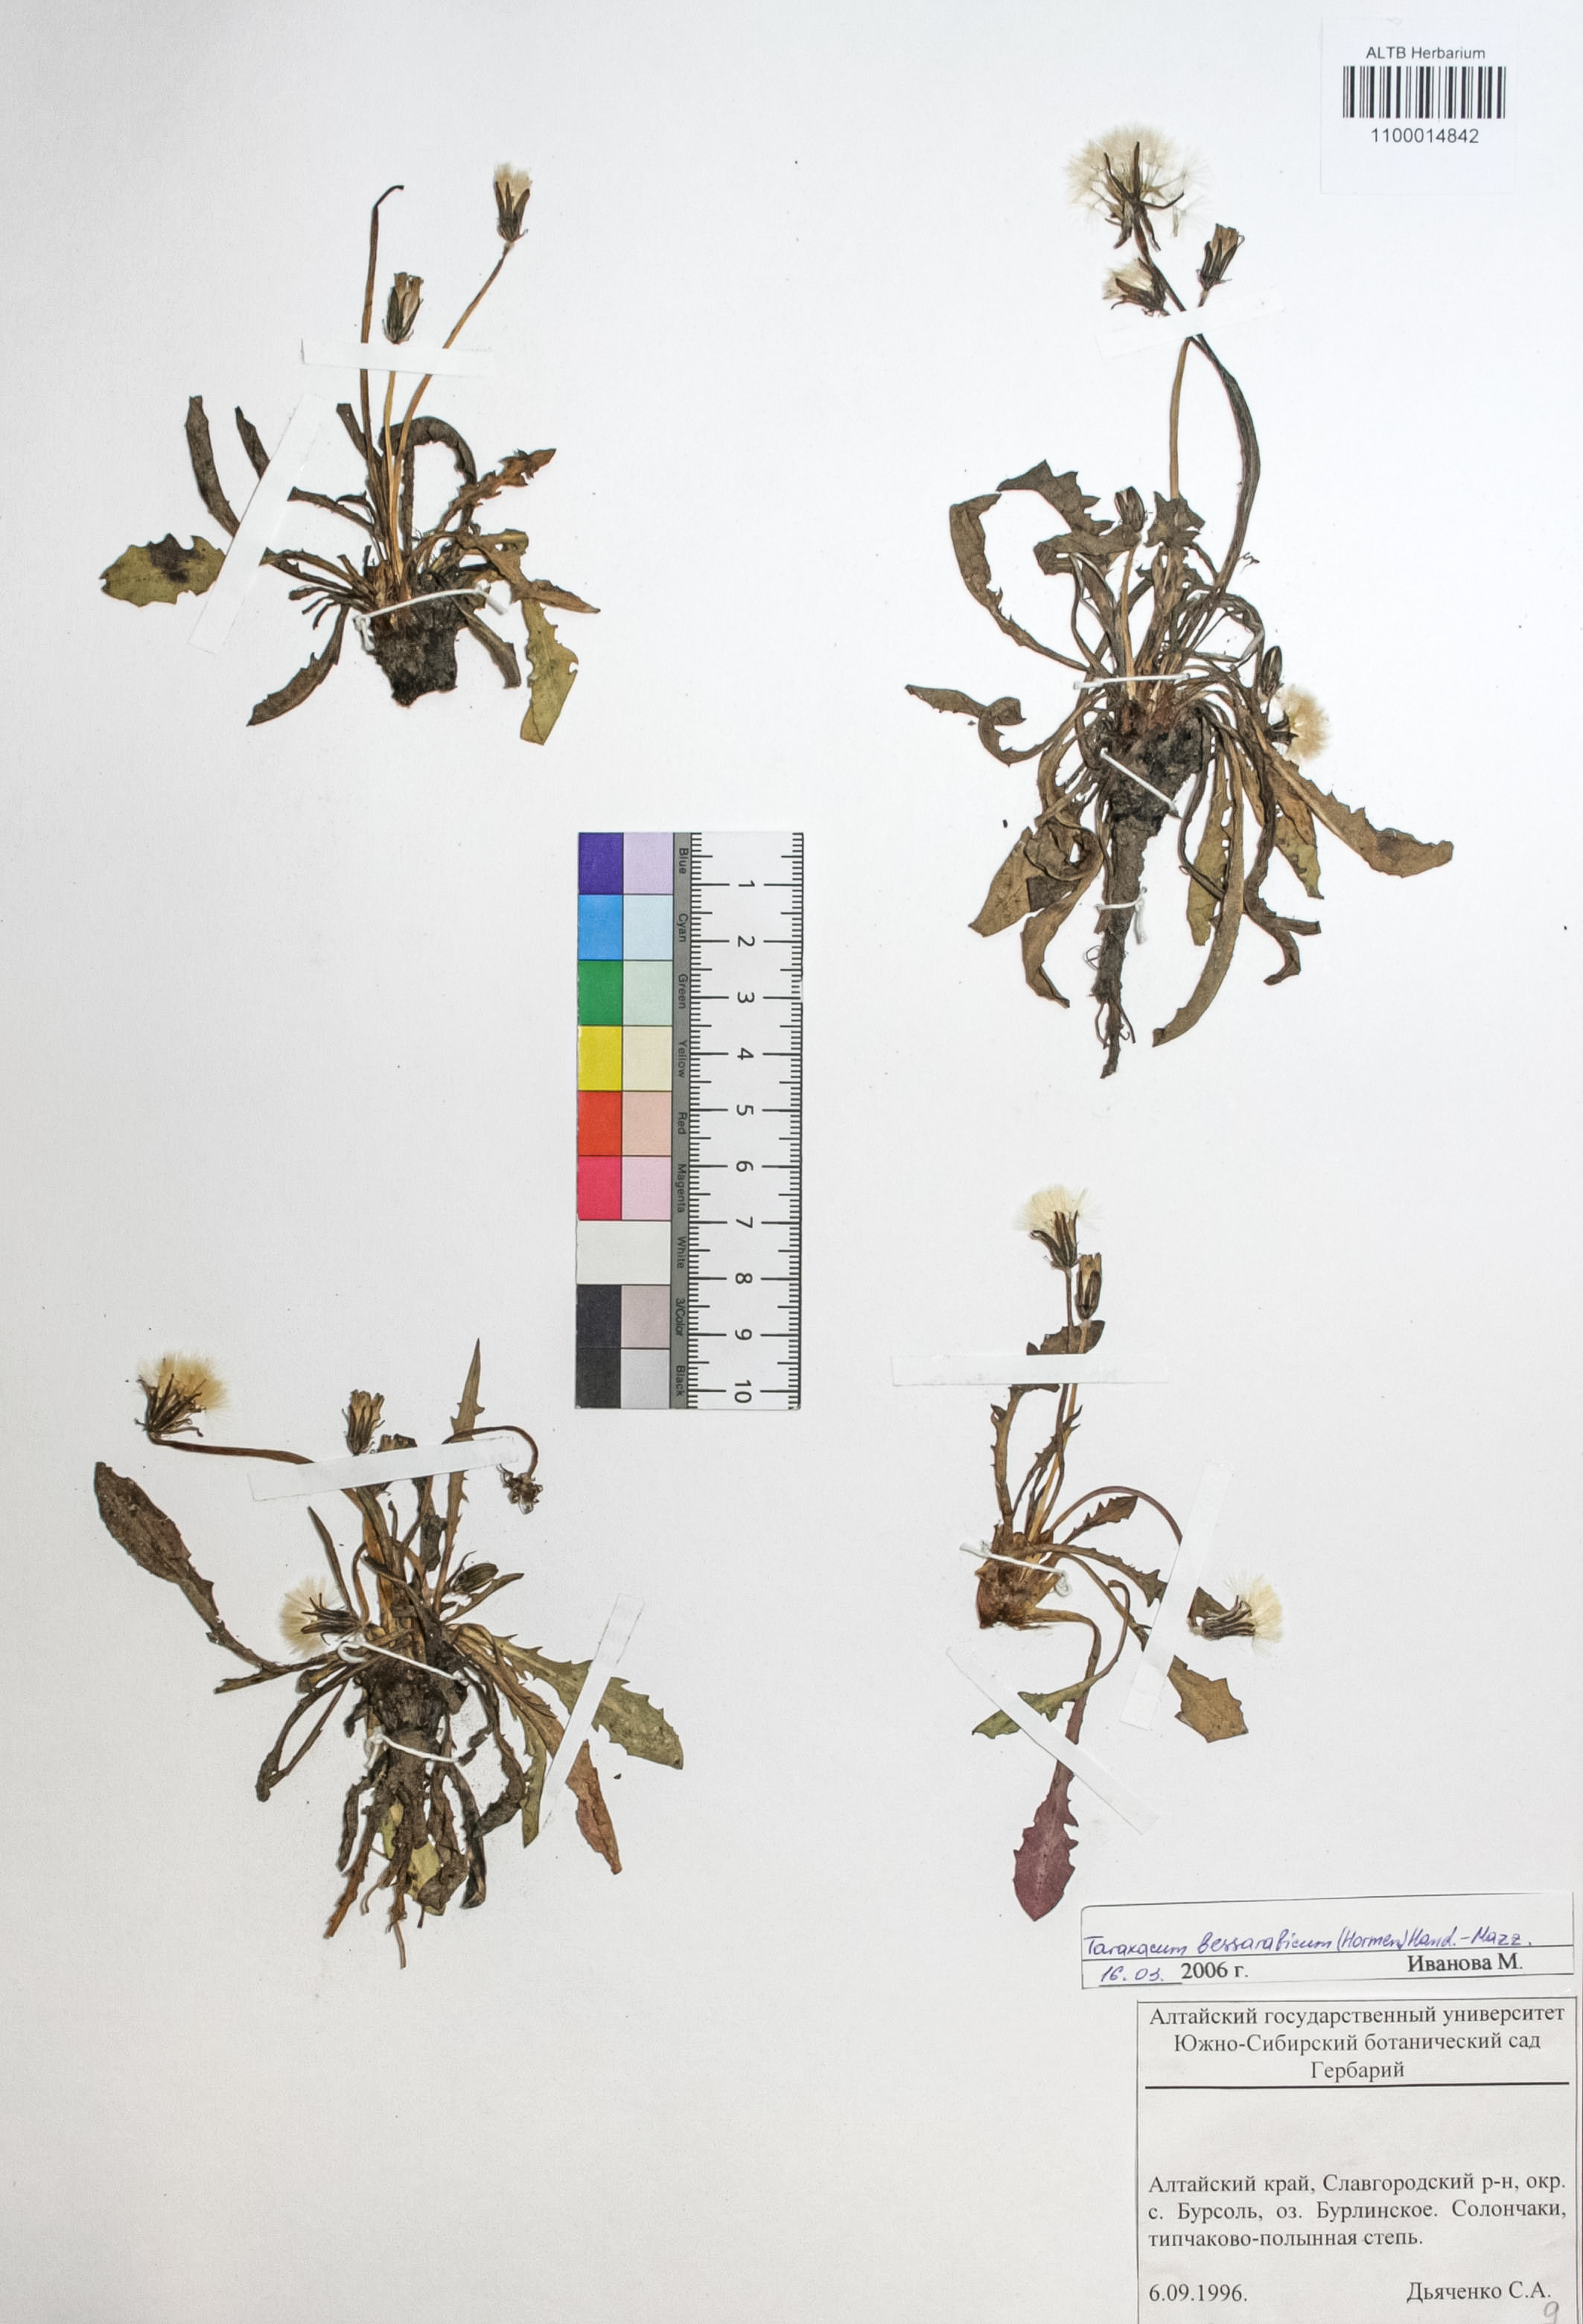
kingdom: Plantae
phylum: Tracheophyta
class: Magnoliopsida
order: Asterales
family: Asteraceae
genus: Taraxacum
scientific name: Taraxacum bessarabicum
